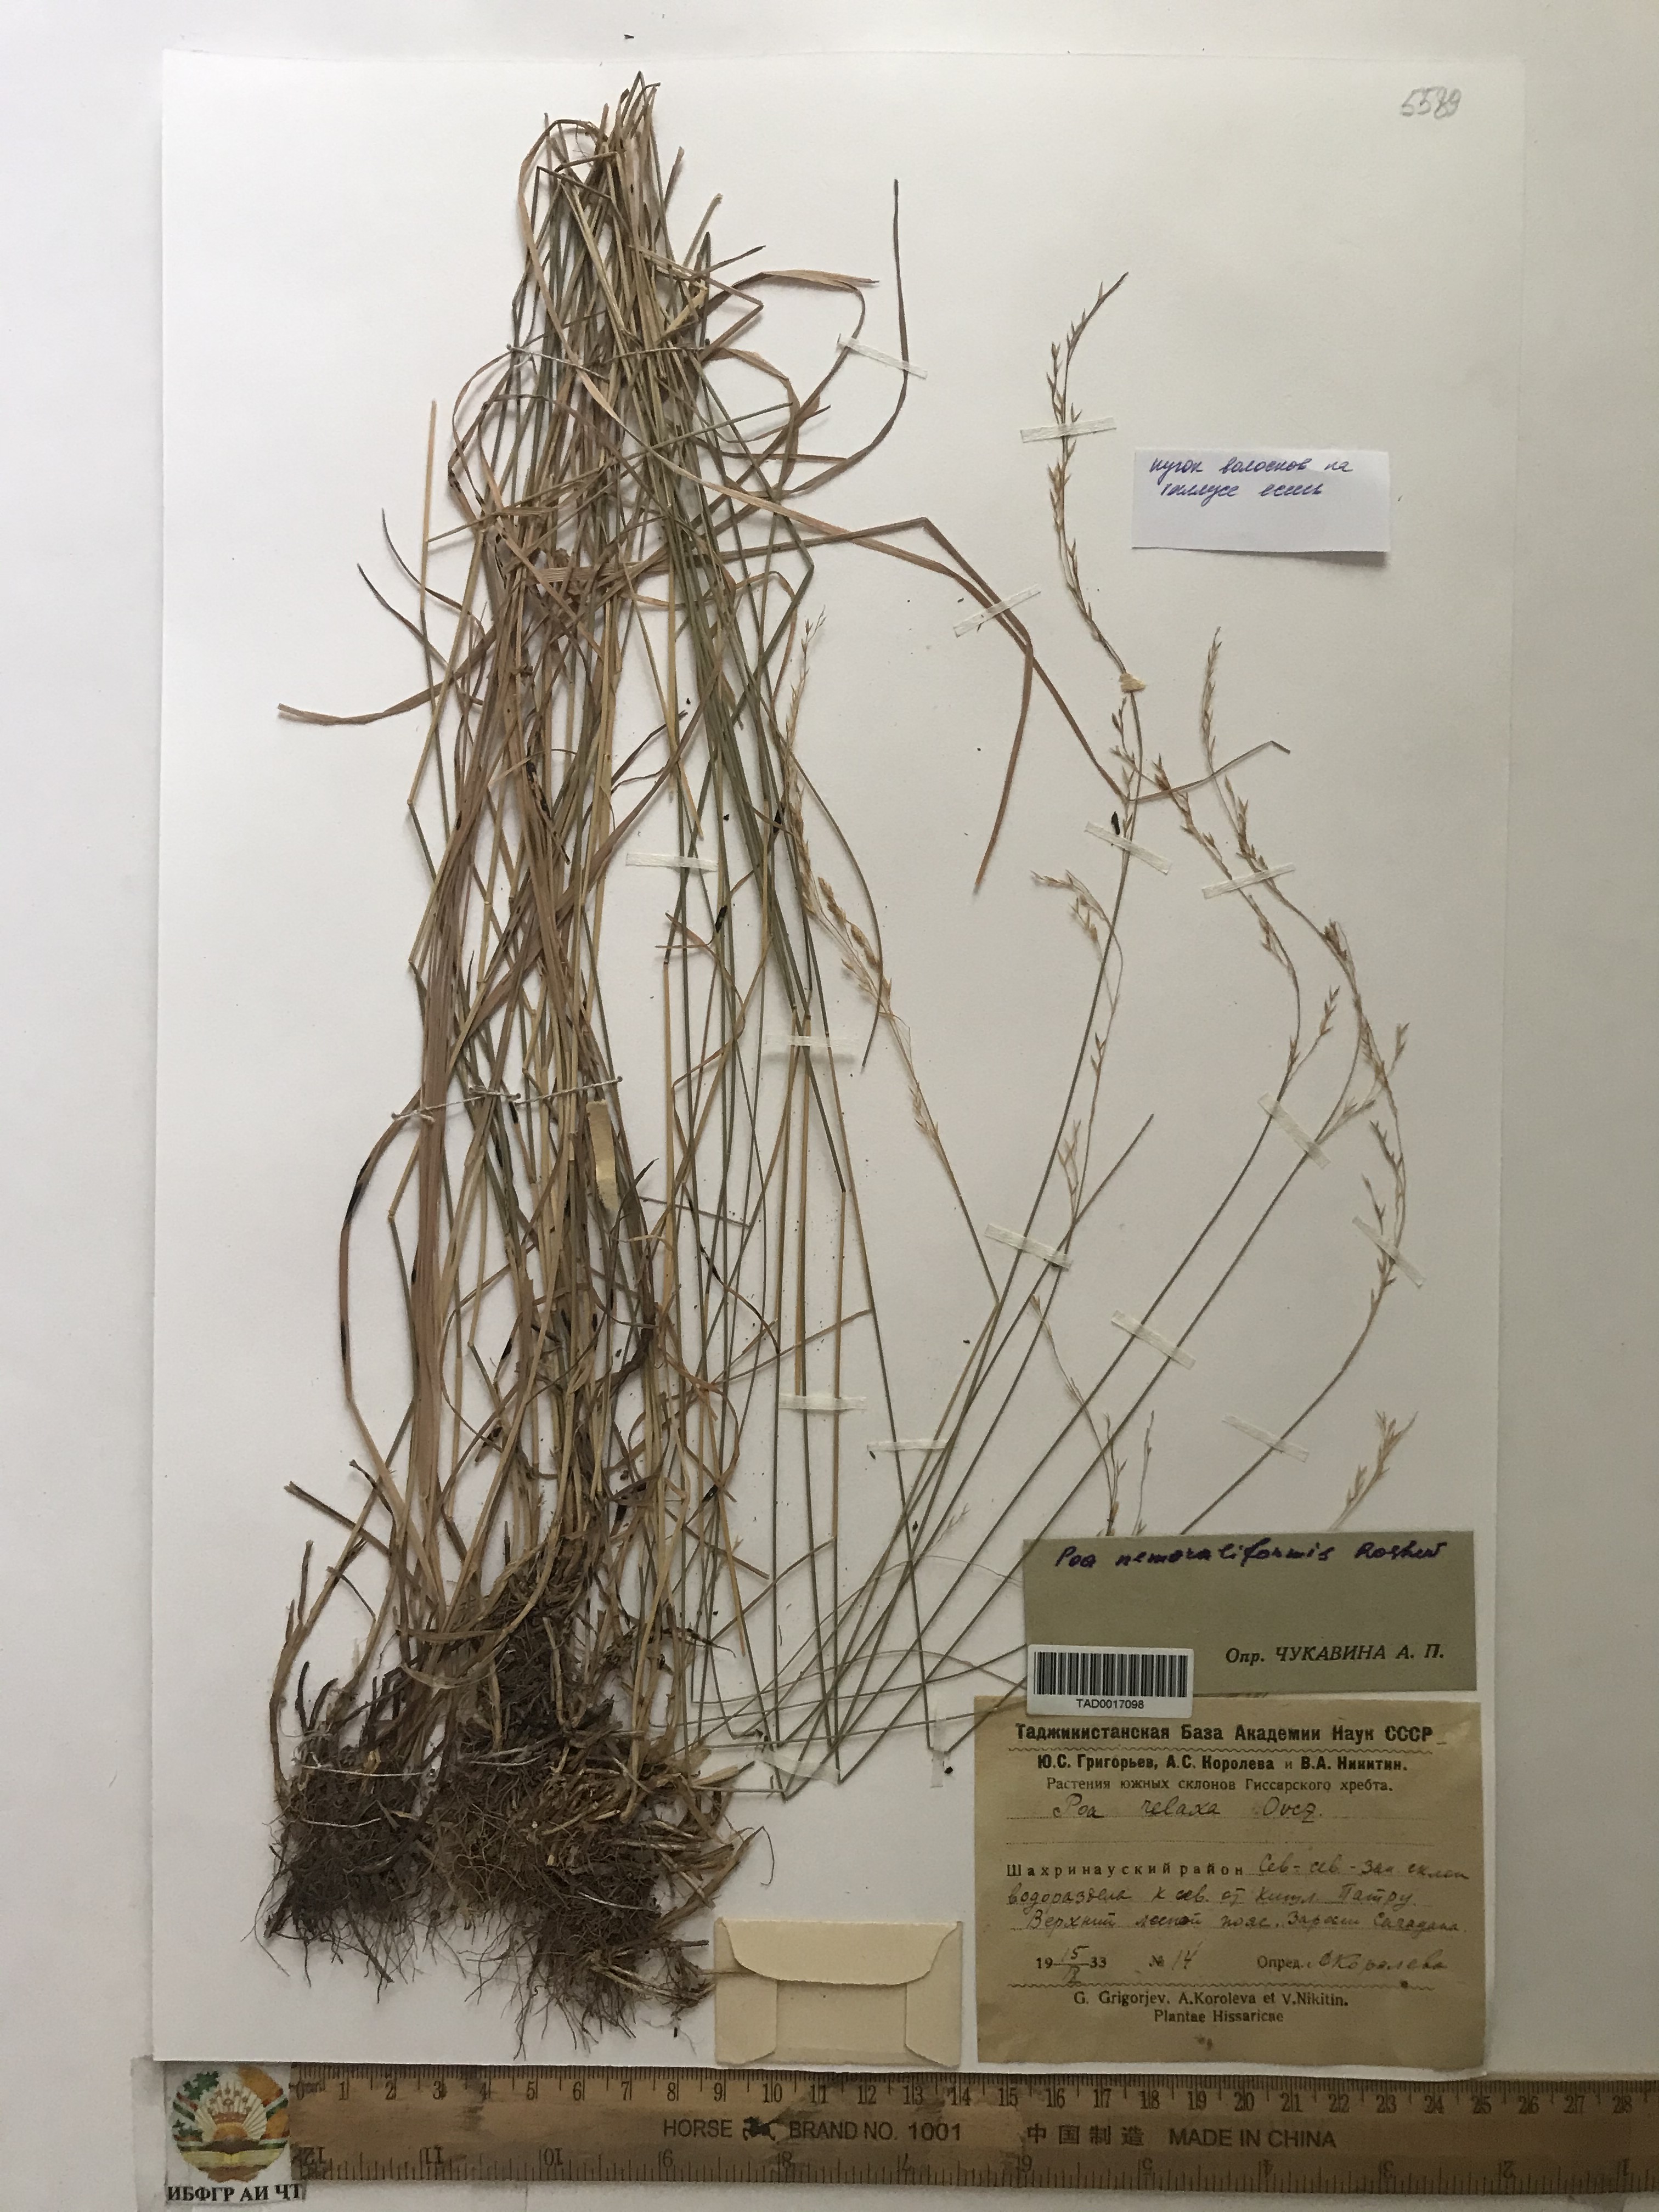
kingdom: Plantae
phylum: Tracheophyta
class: Liliopsida
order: Poales
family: Poaceae
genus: Poa
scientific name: Poa urssulensis
